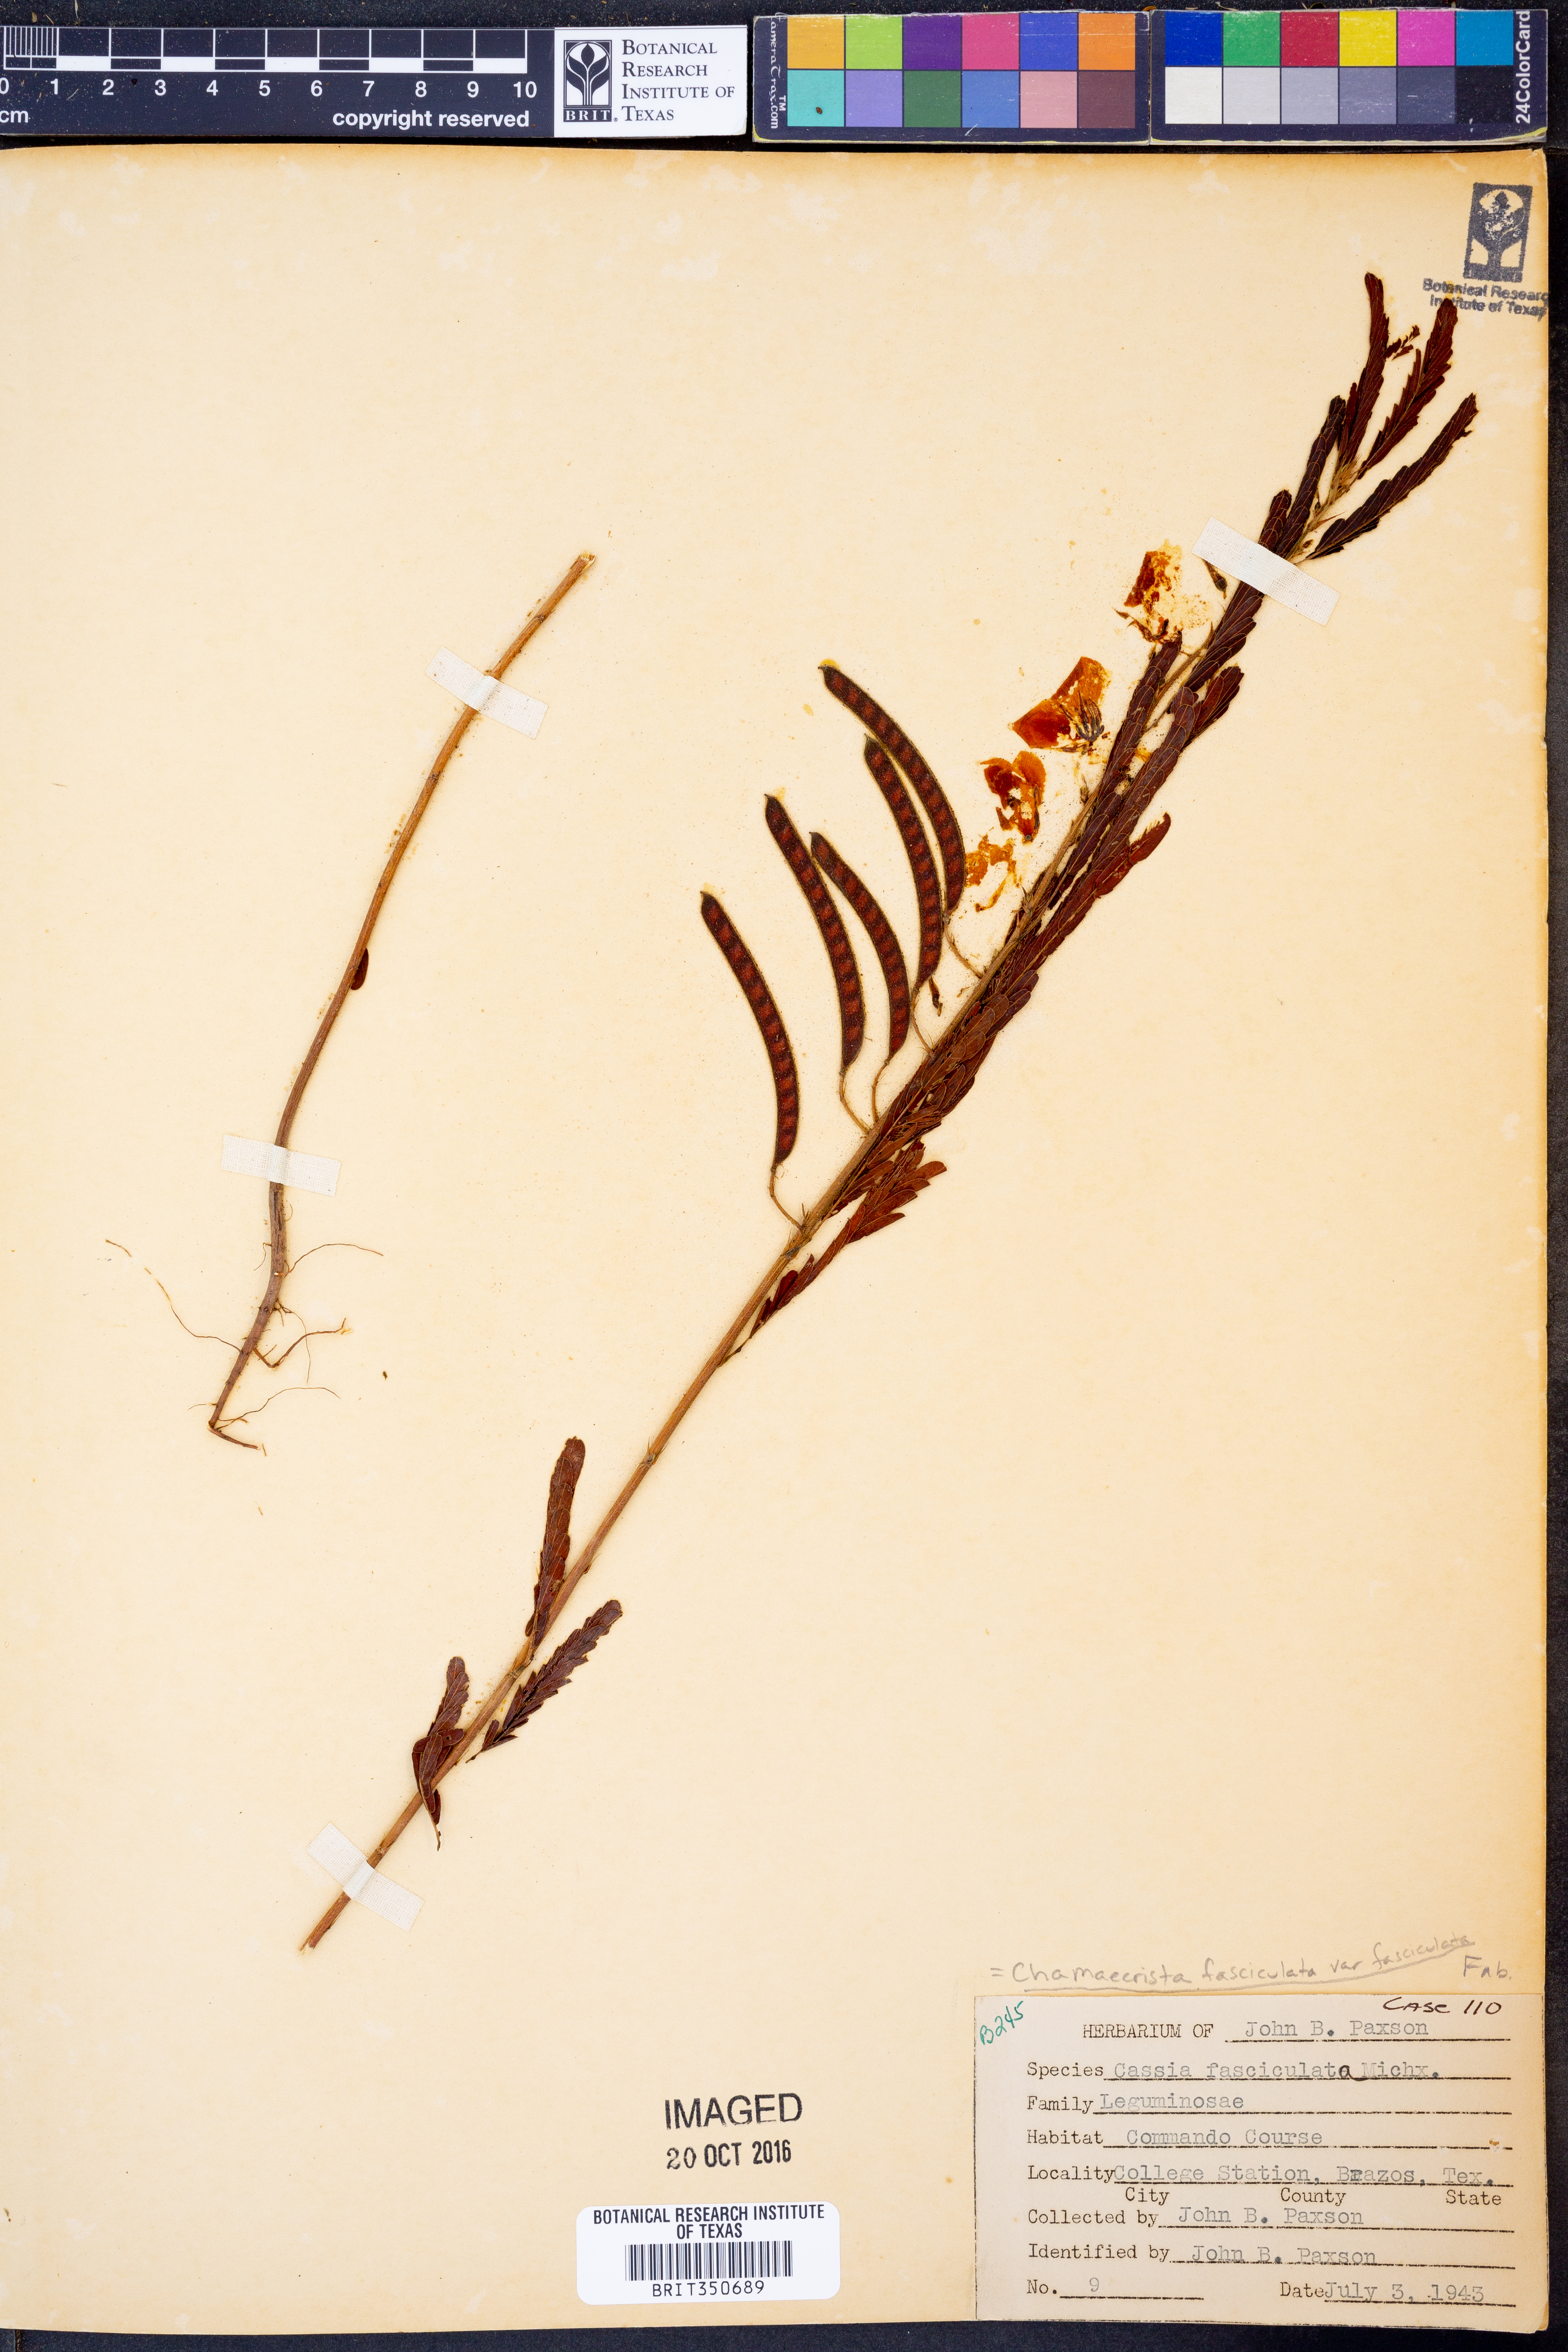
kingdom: Plantae
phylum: Tracheophyta
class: Magnoliopsida
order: Fabales
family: Fabaceae
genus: Chamaecrista
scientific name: Chamaecrista fasciculata
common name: Golden cassia
